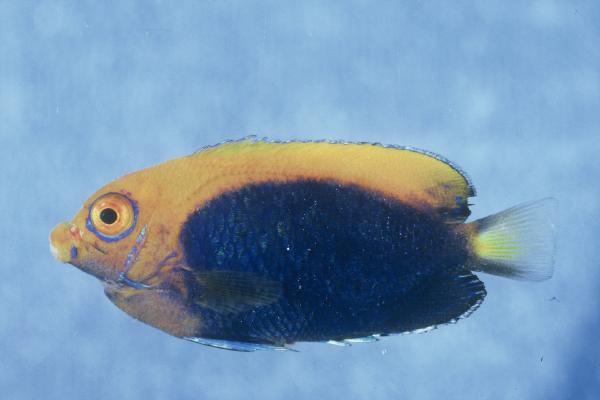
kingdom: Animalia
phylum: Chordata
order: Perciformes
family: Pomacanthidae
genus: Centropyge
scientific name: Centropyge acanthops
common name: African pygmy angelfish
